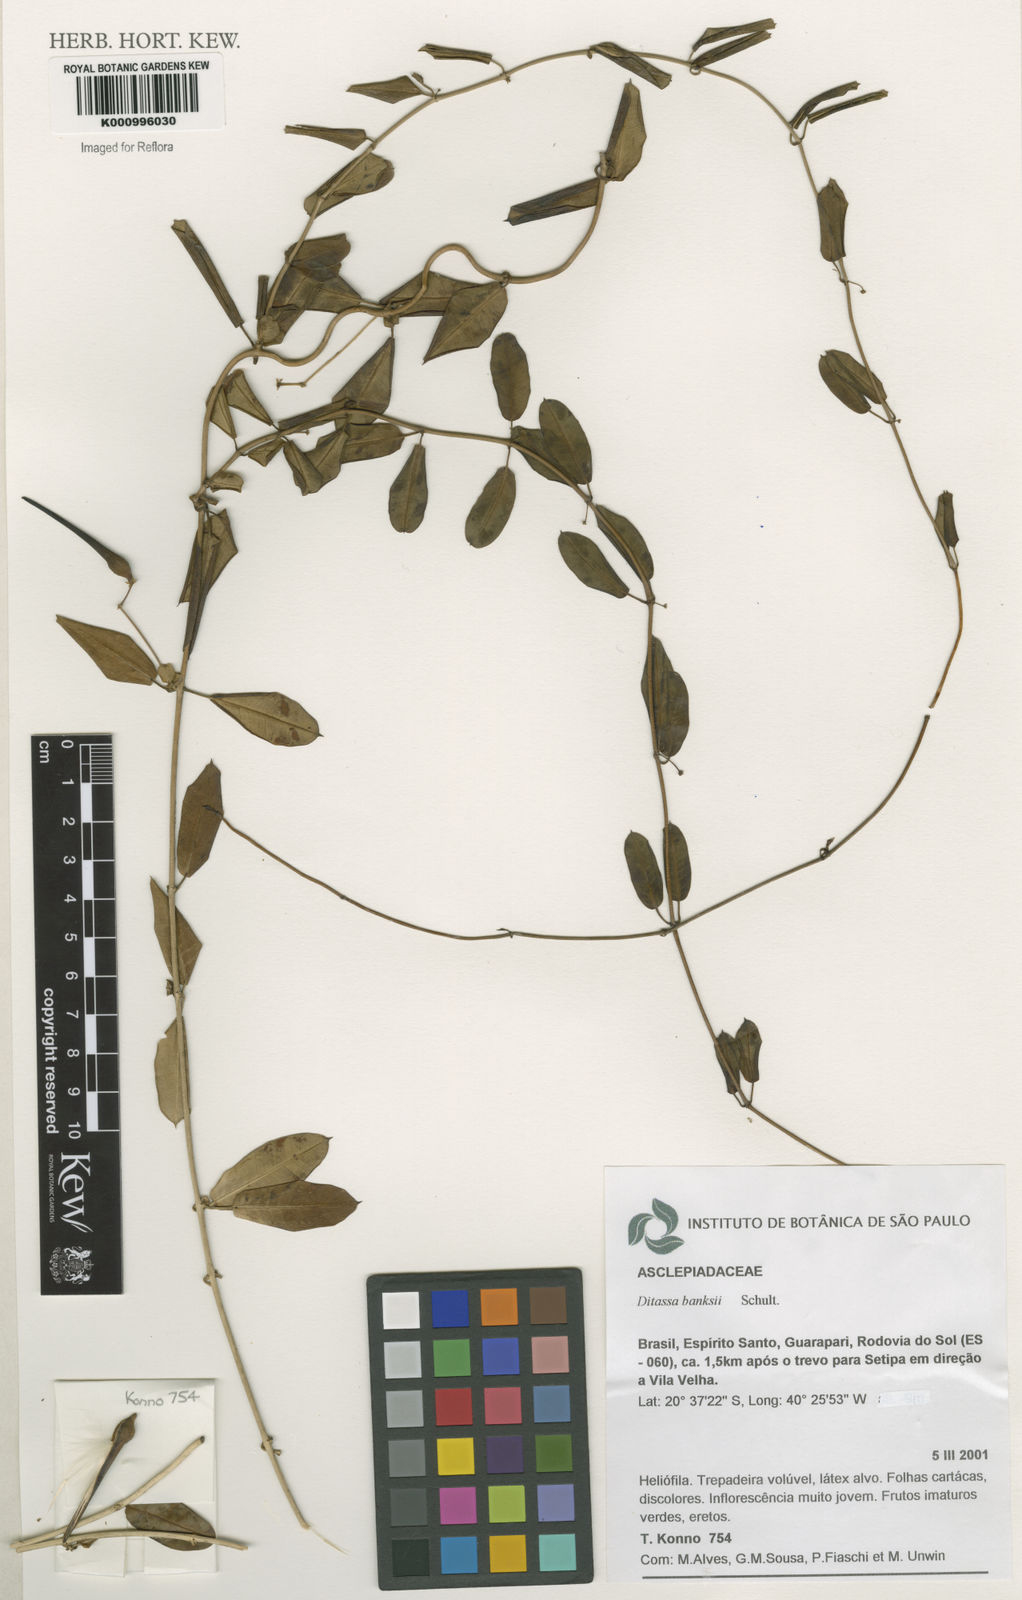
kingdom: Plantae
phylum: Tracheophyta
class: Magnoliopsida
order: Gentianales
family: Apocynaceae
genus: Ditassa
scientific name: Ditassa banksii
